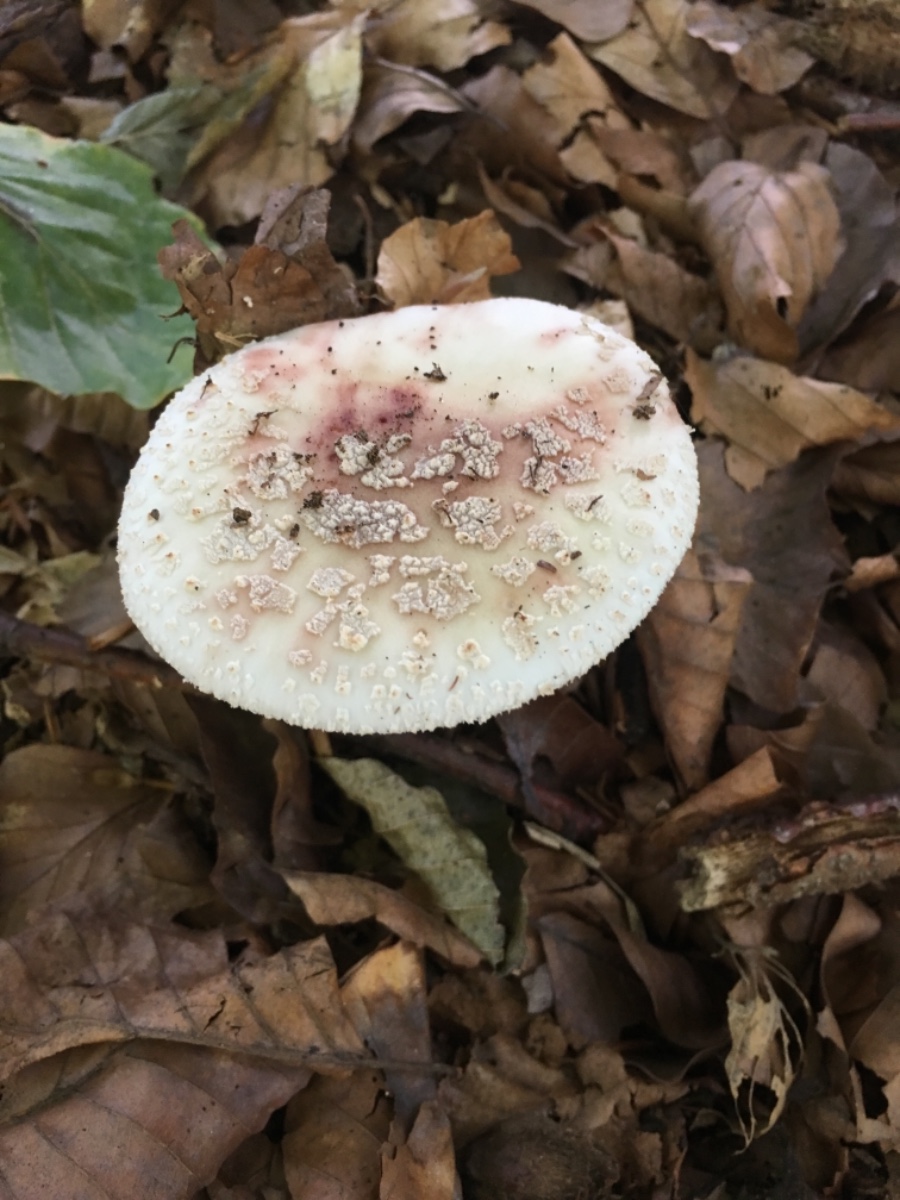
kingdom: Fungi
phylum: Basidiomycota
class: Agaricomycetes
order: Agaricales
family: Amanitaceae
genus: Amanita
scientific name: Amanita rubescens
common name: rødmende fluesvamp
